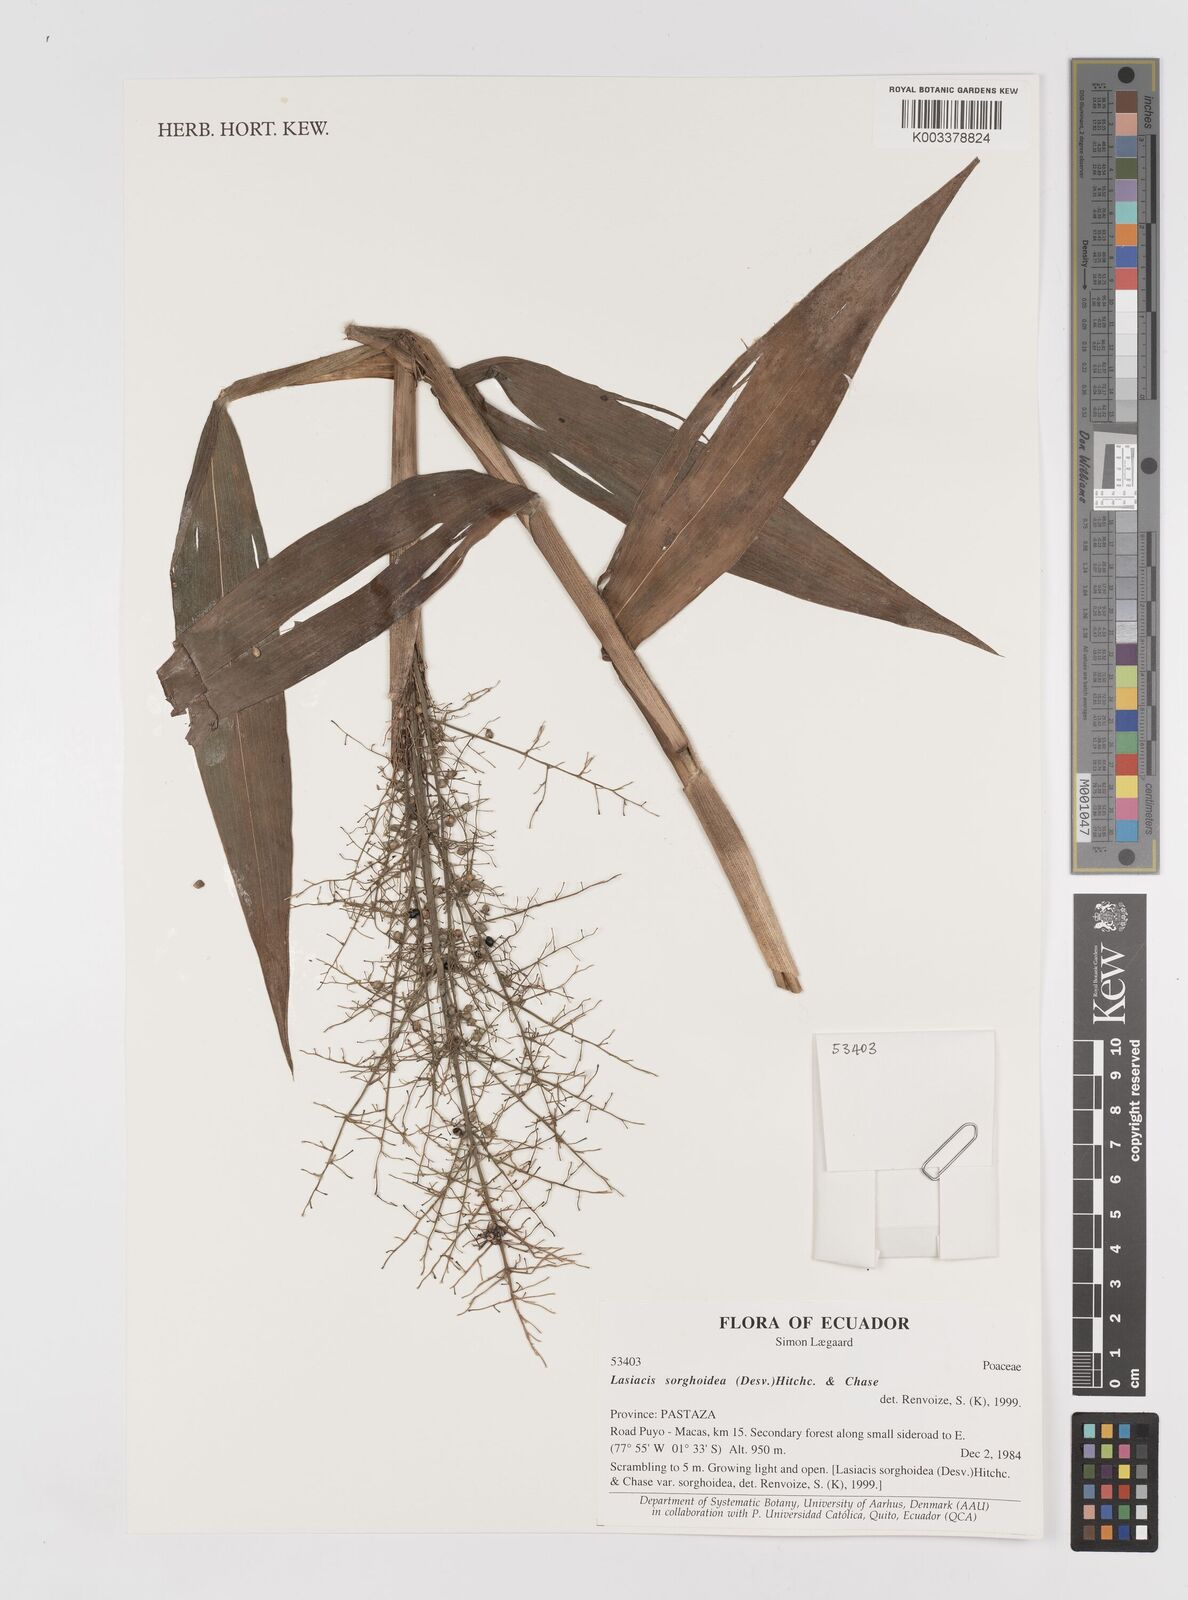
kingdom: Plantae
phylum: Tracheophyta
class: Liliopsida
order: Poales
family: Poaceae
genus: Lasiacis
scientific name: Lasiacis maculata
